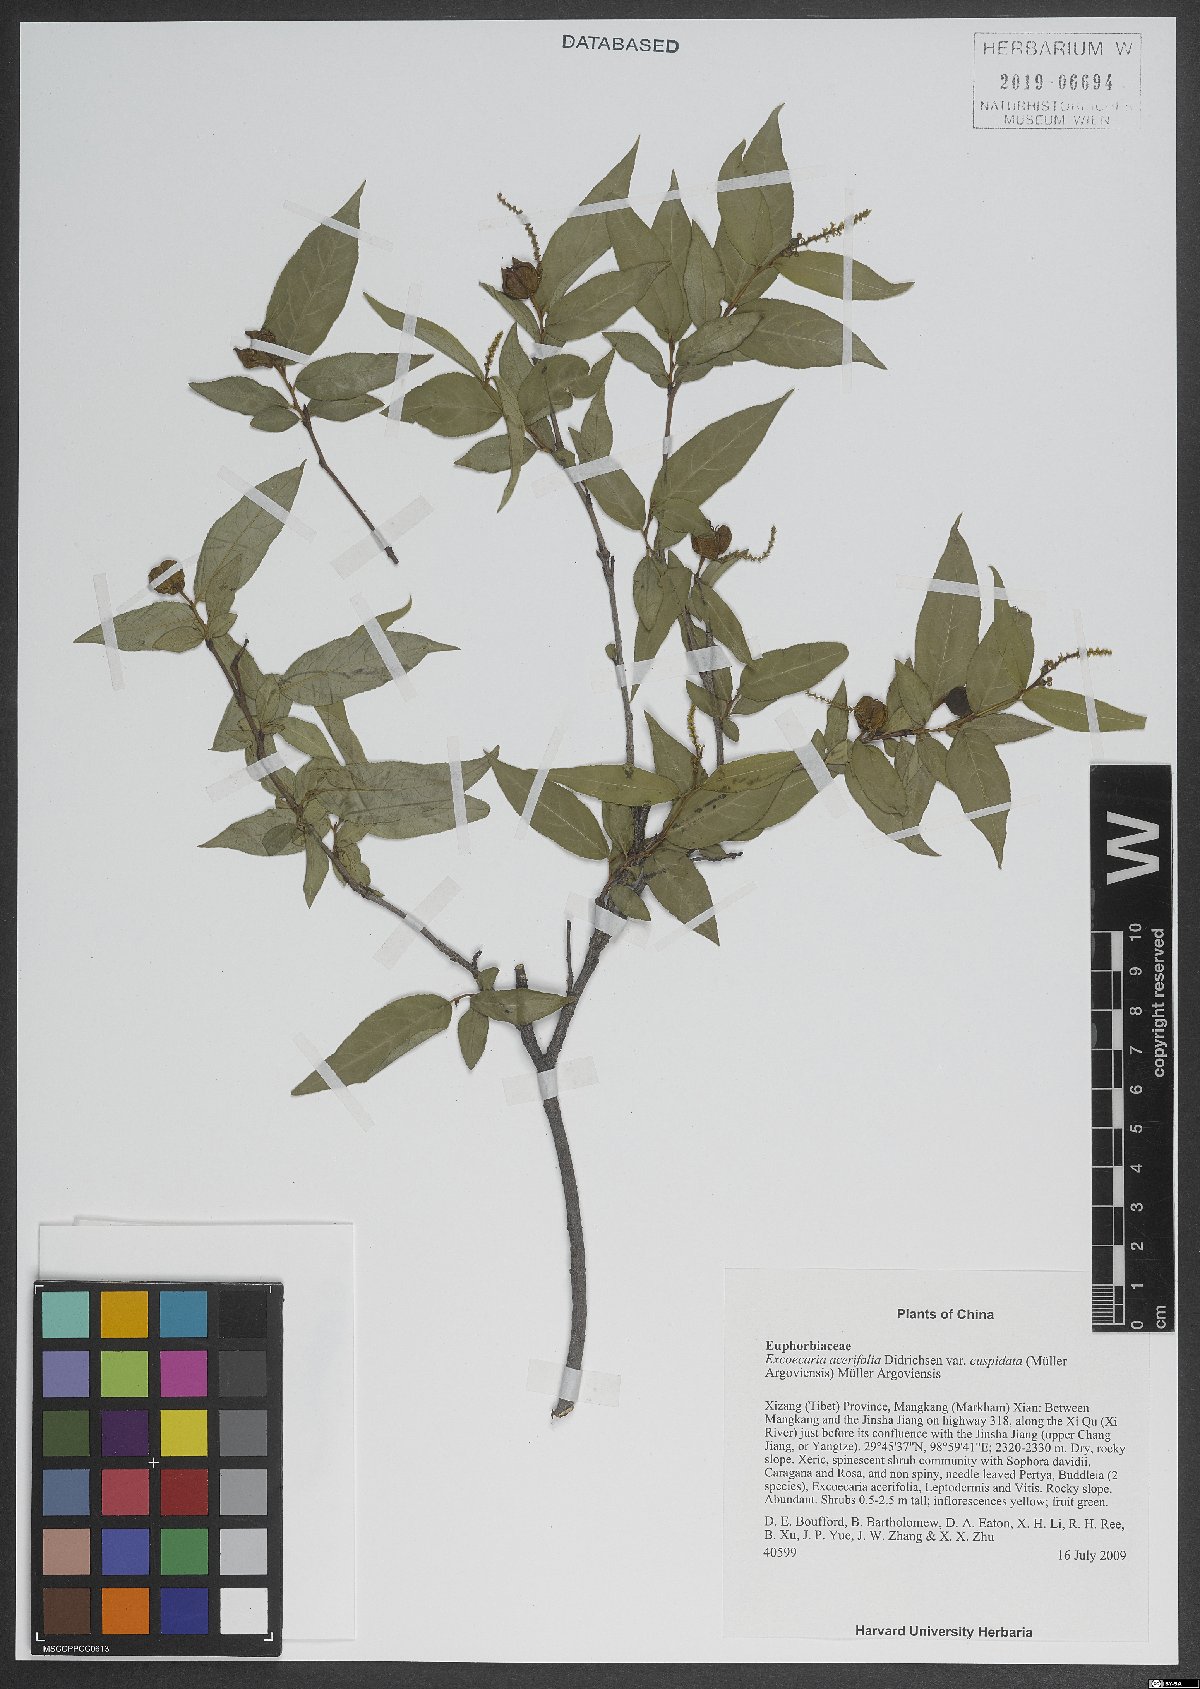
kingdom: Plantae
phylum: Tracheophyta
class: Magnoliopsida
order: Malpighiales
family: Euphorbiaceae
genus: Excoecaria
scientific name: Excoecaria acerifolia
